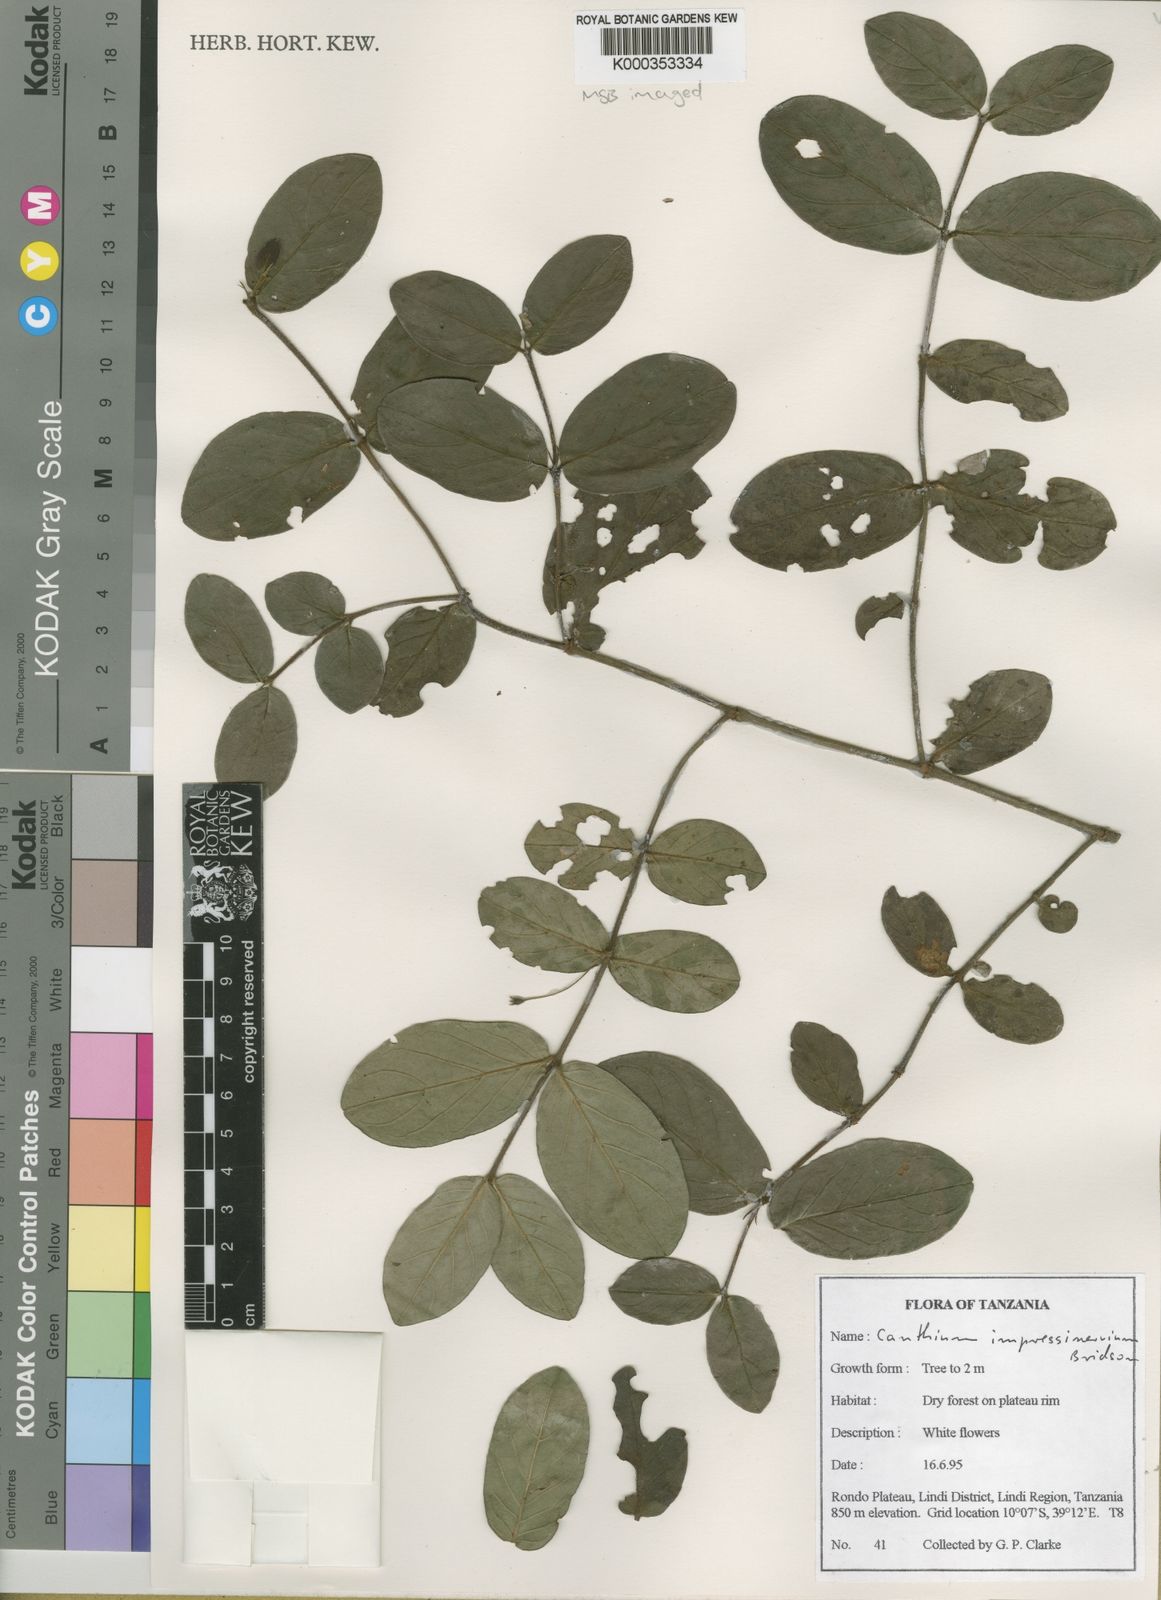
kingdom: Plantae
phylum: Tracheophyta
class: Magnoliopsida
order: Gentianales
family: Rubiaceae
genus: Bullockia
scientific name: Bullockia impressinervia
